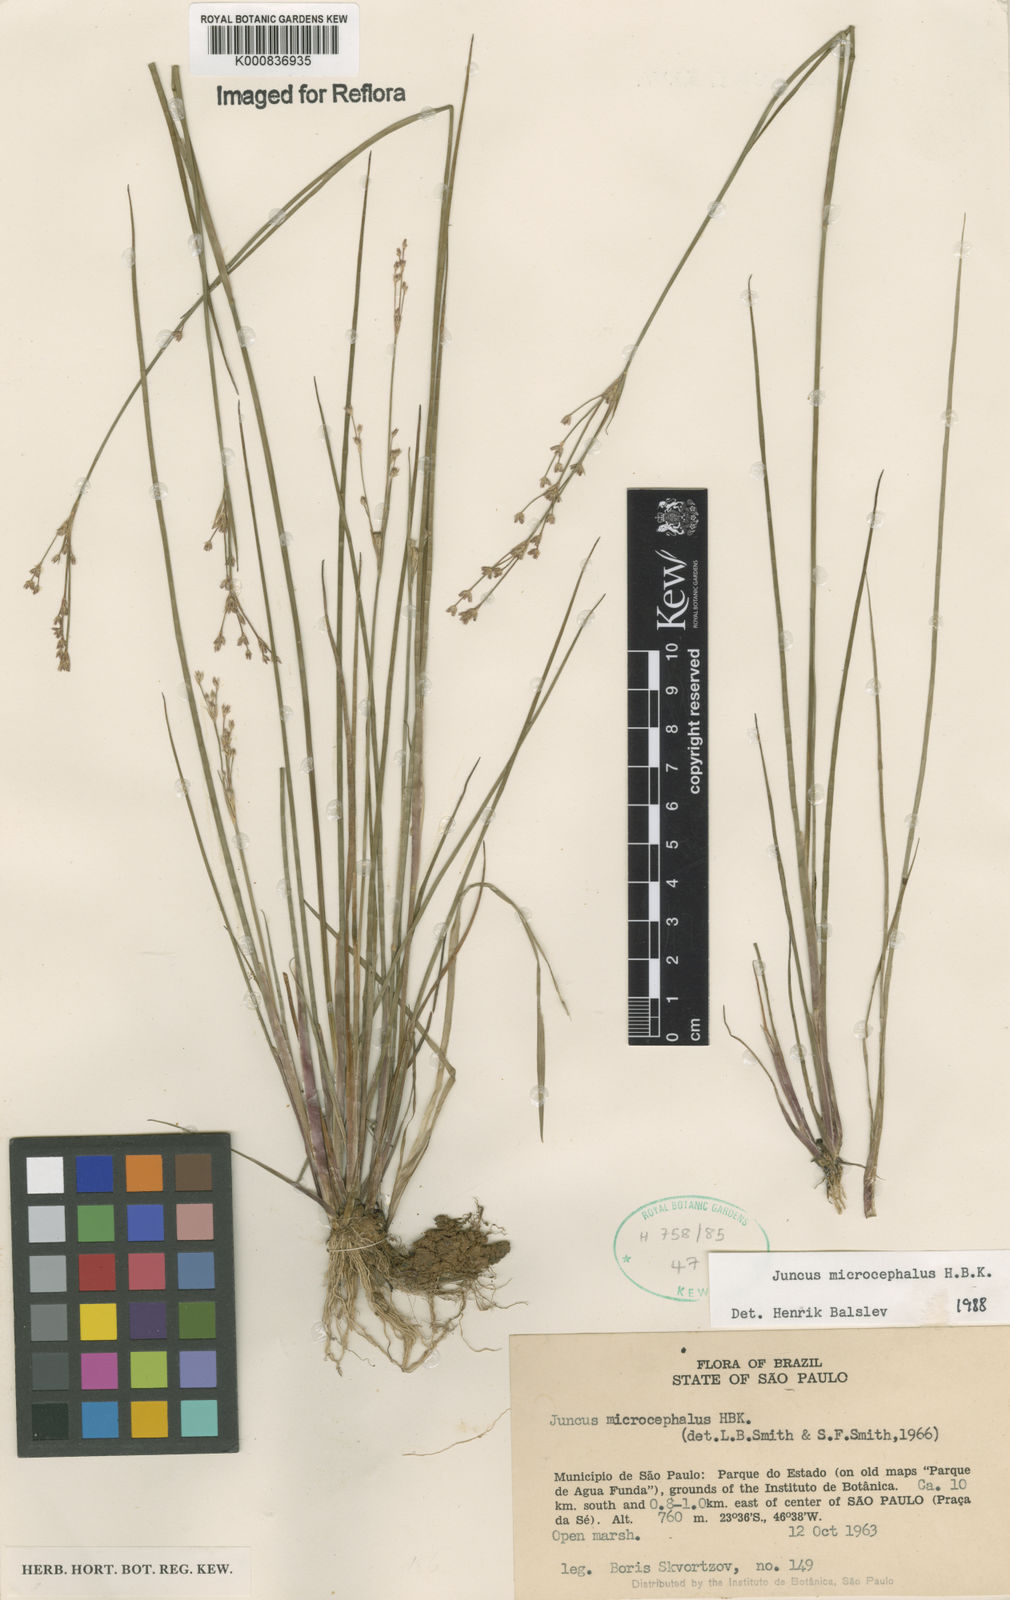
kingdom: Plantae
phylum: Tracheophyta
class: Liliopsida
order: Poales
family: Juncaceae
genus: Juncus
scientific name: Juncus microcephalus
